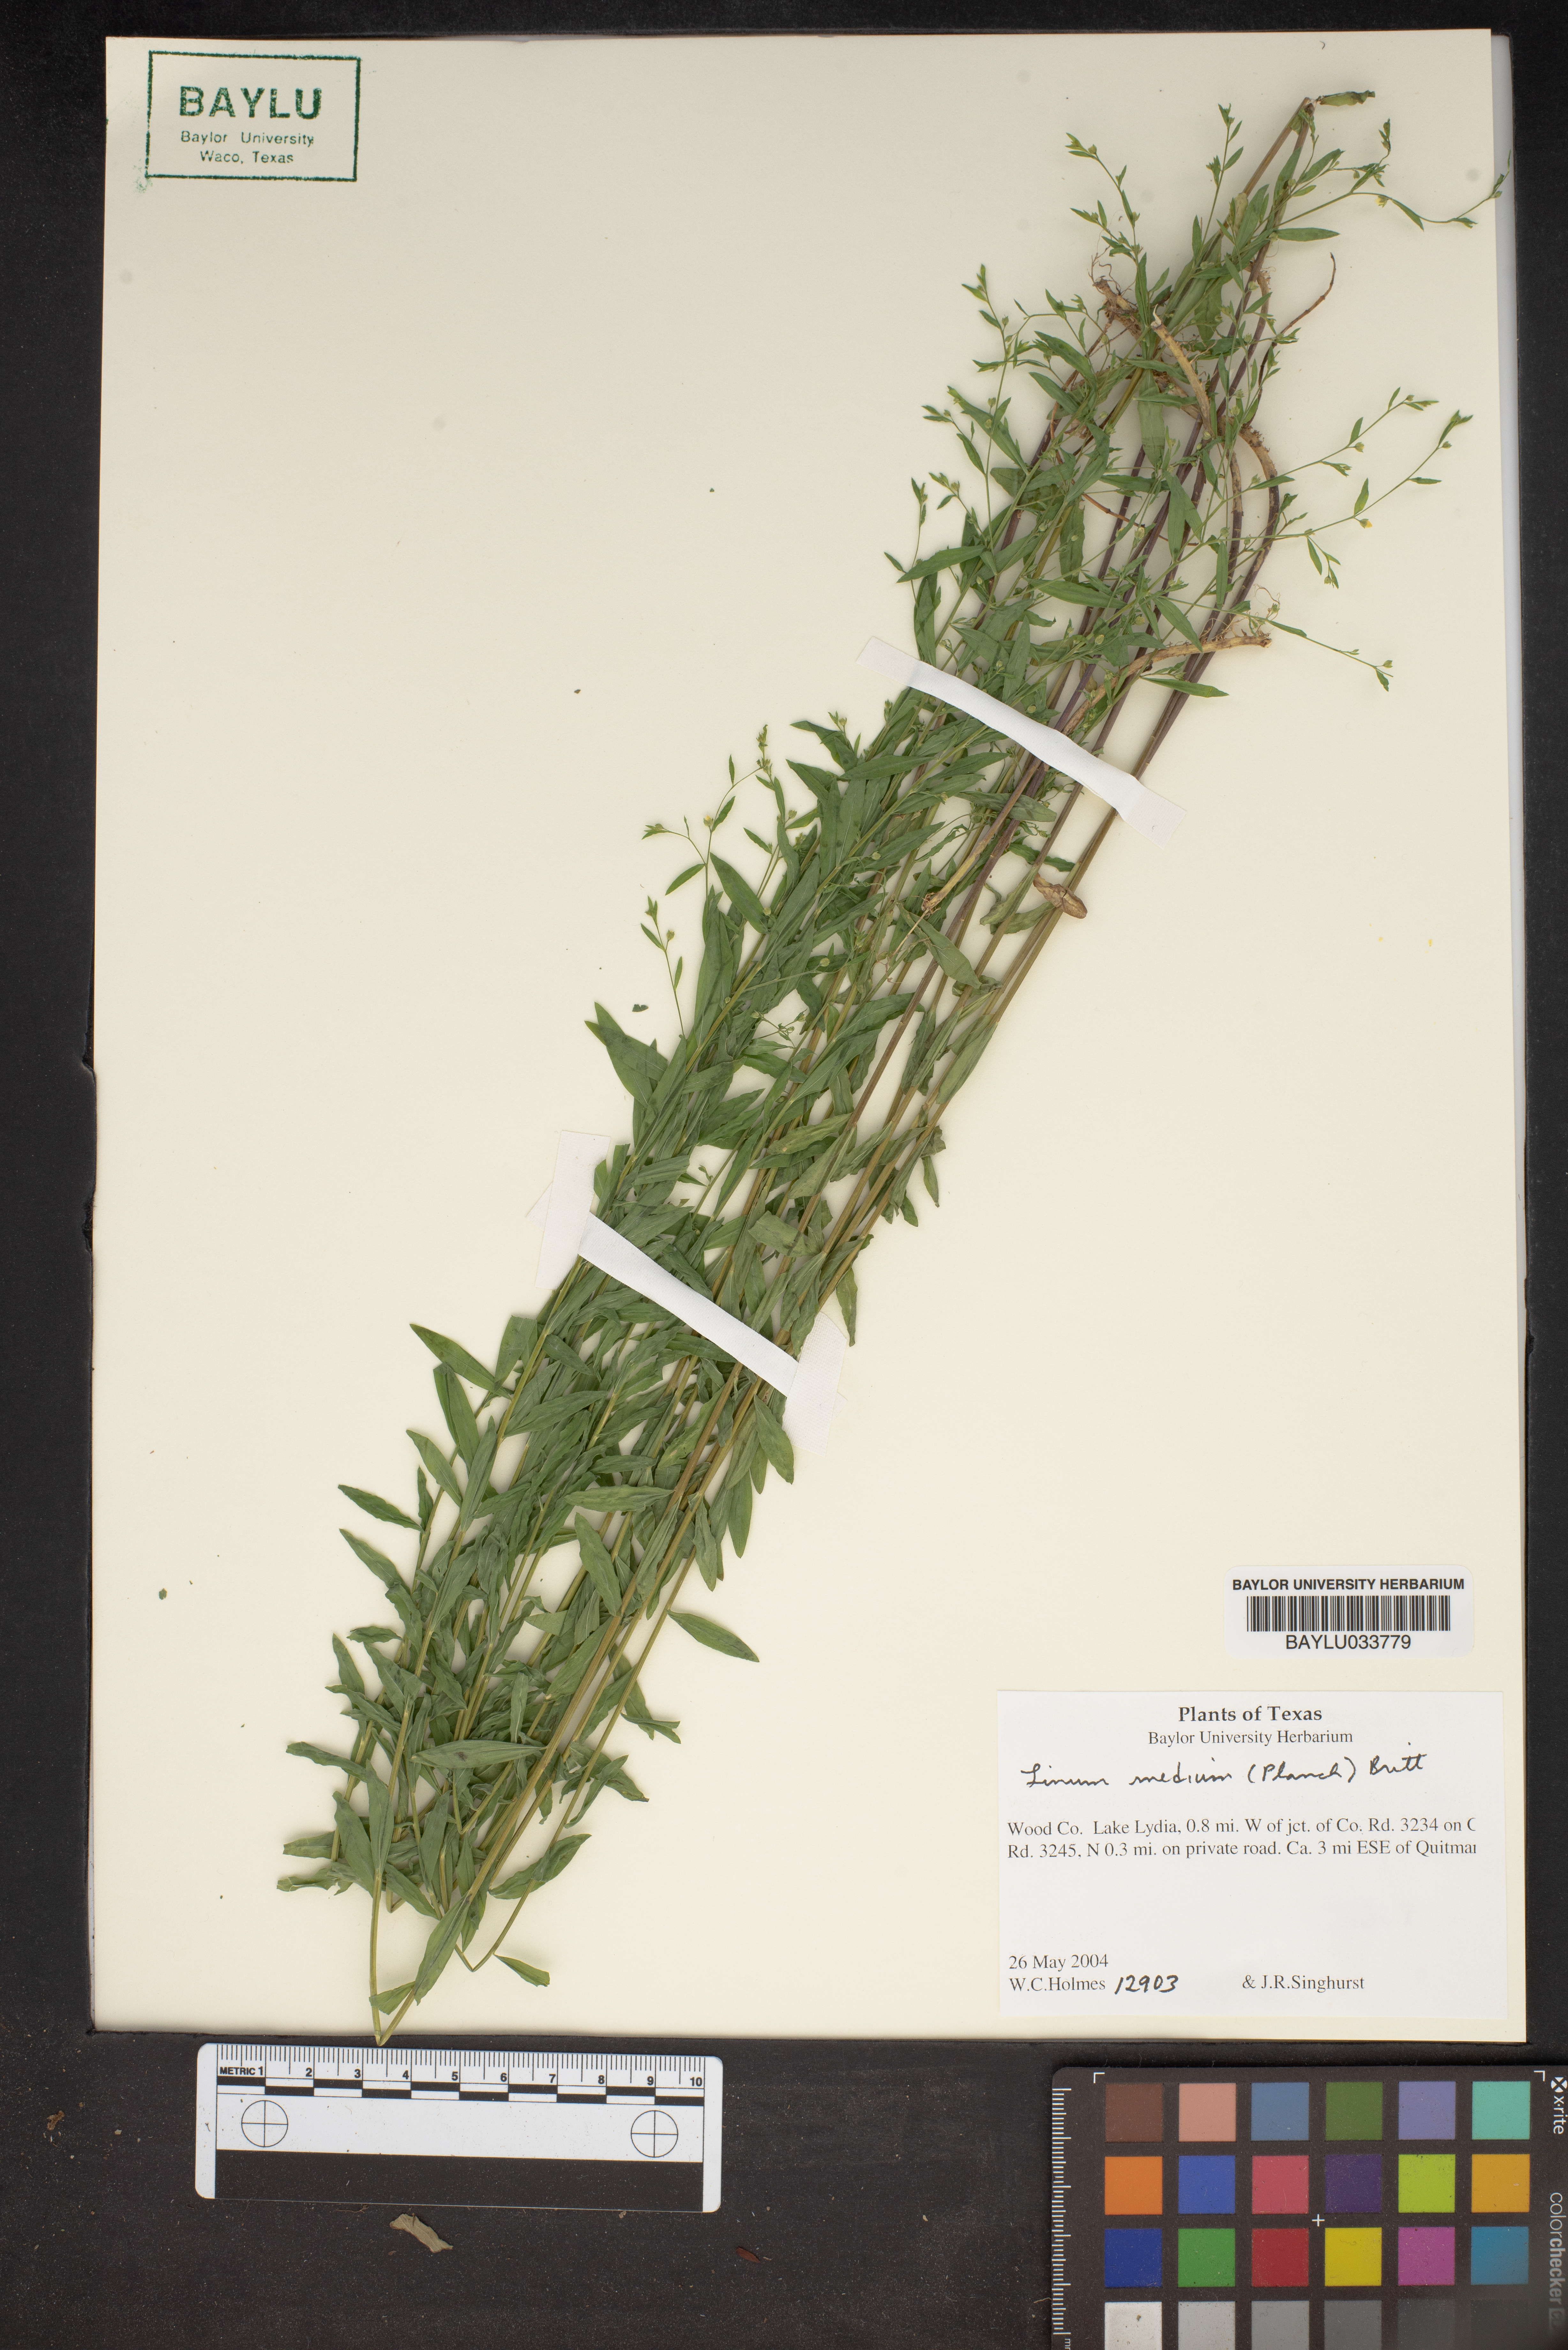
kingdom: Plantae
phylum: Tracheophyta
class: Magnoliopsida
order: Malpighiales
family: Linaceae
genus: Linum
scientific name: Linum medium
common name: Stiff yellow flax
